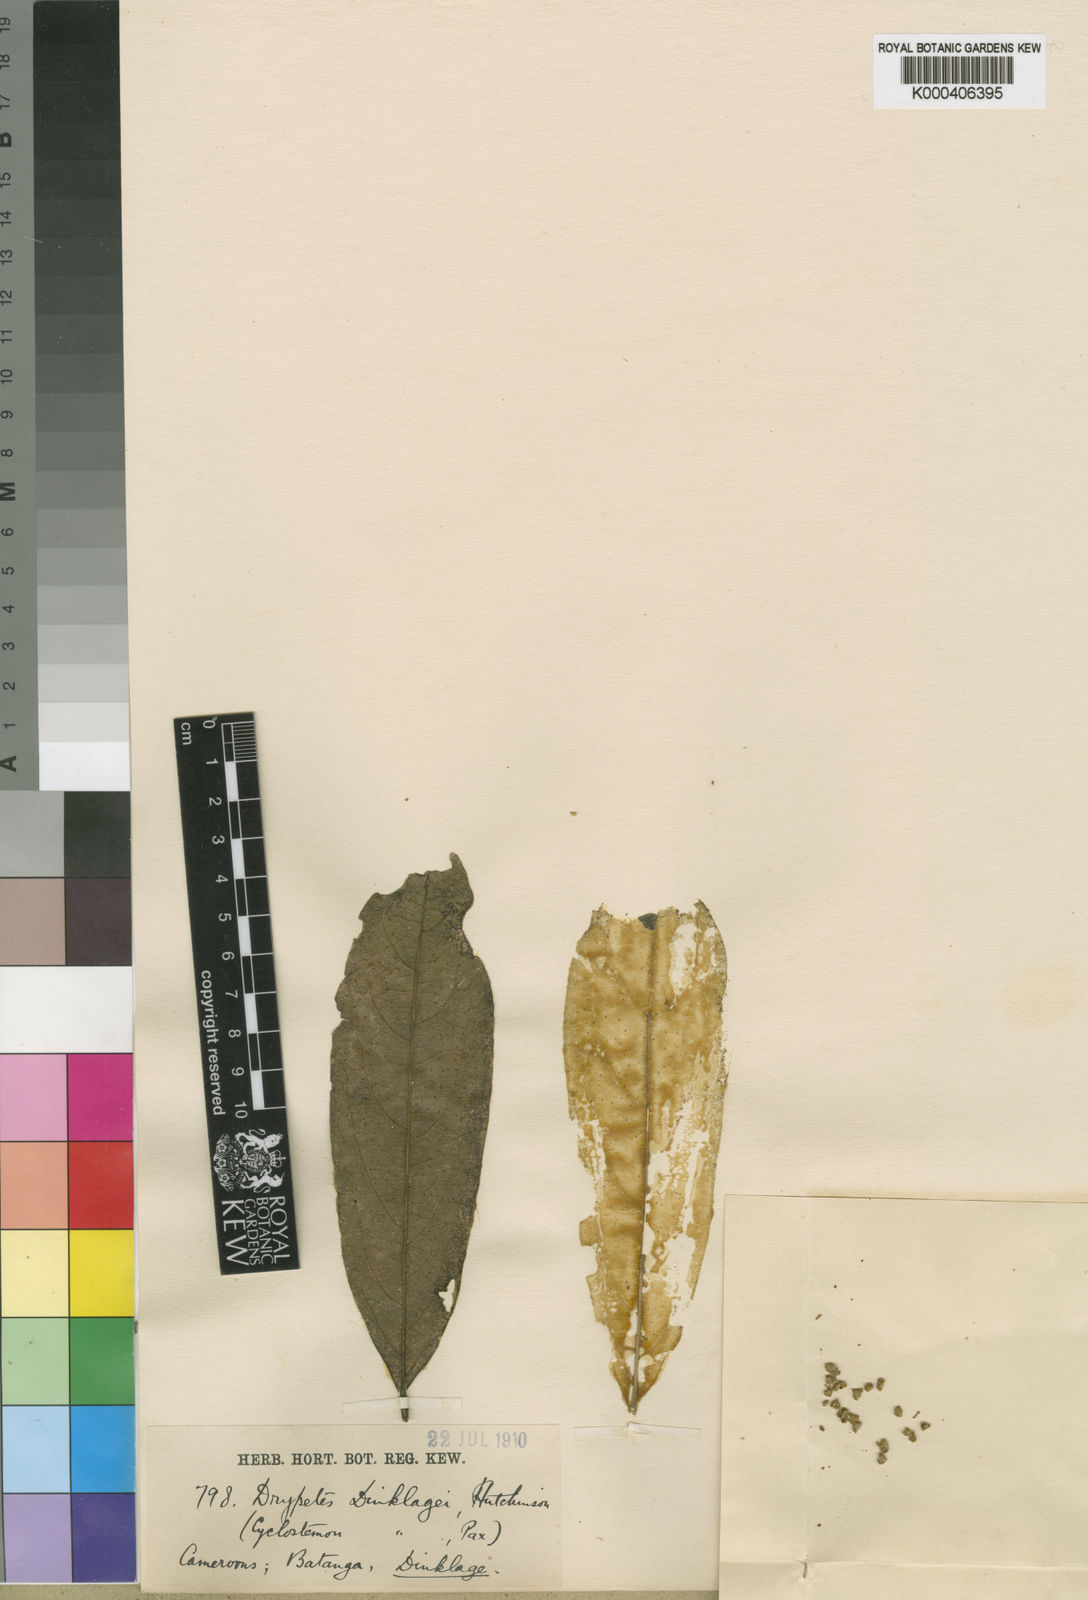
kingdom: Plantae
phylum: Tracheophyta
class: Magnoliopsida
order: Malpighiales
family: Putranjivaceae
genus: Drypetes
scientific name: Drypetes dinklagei
